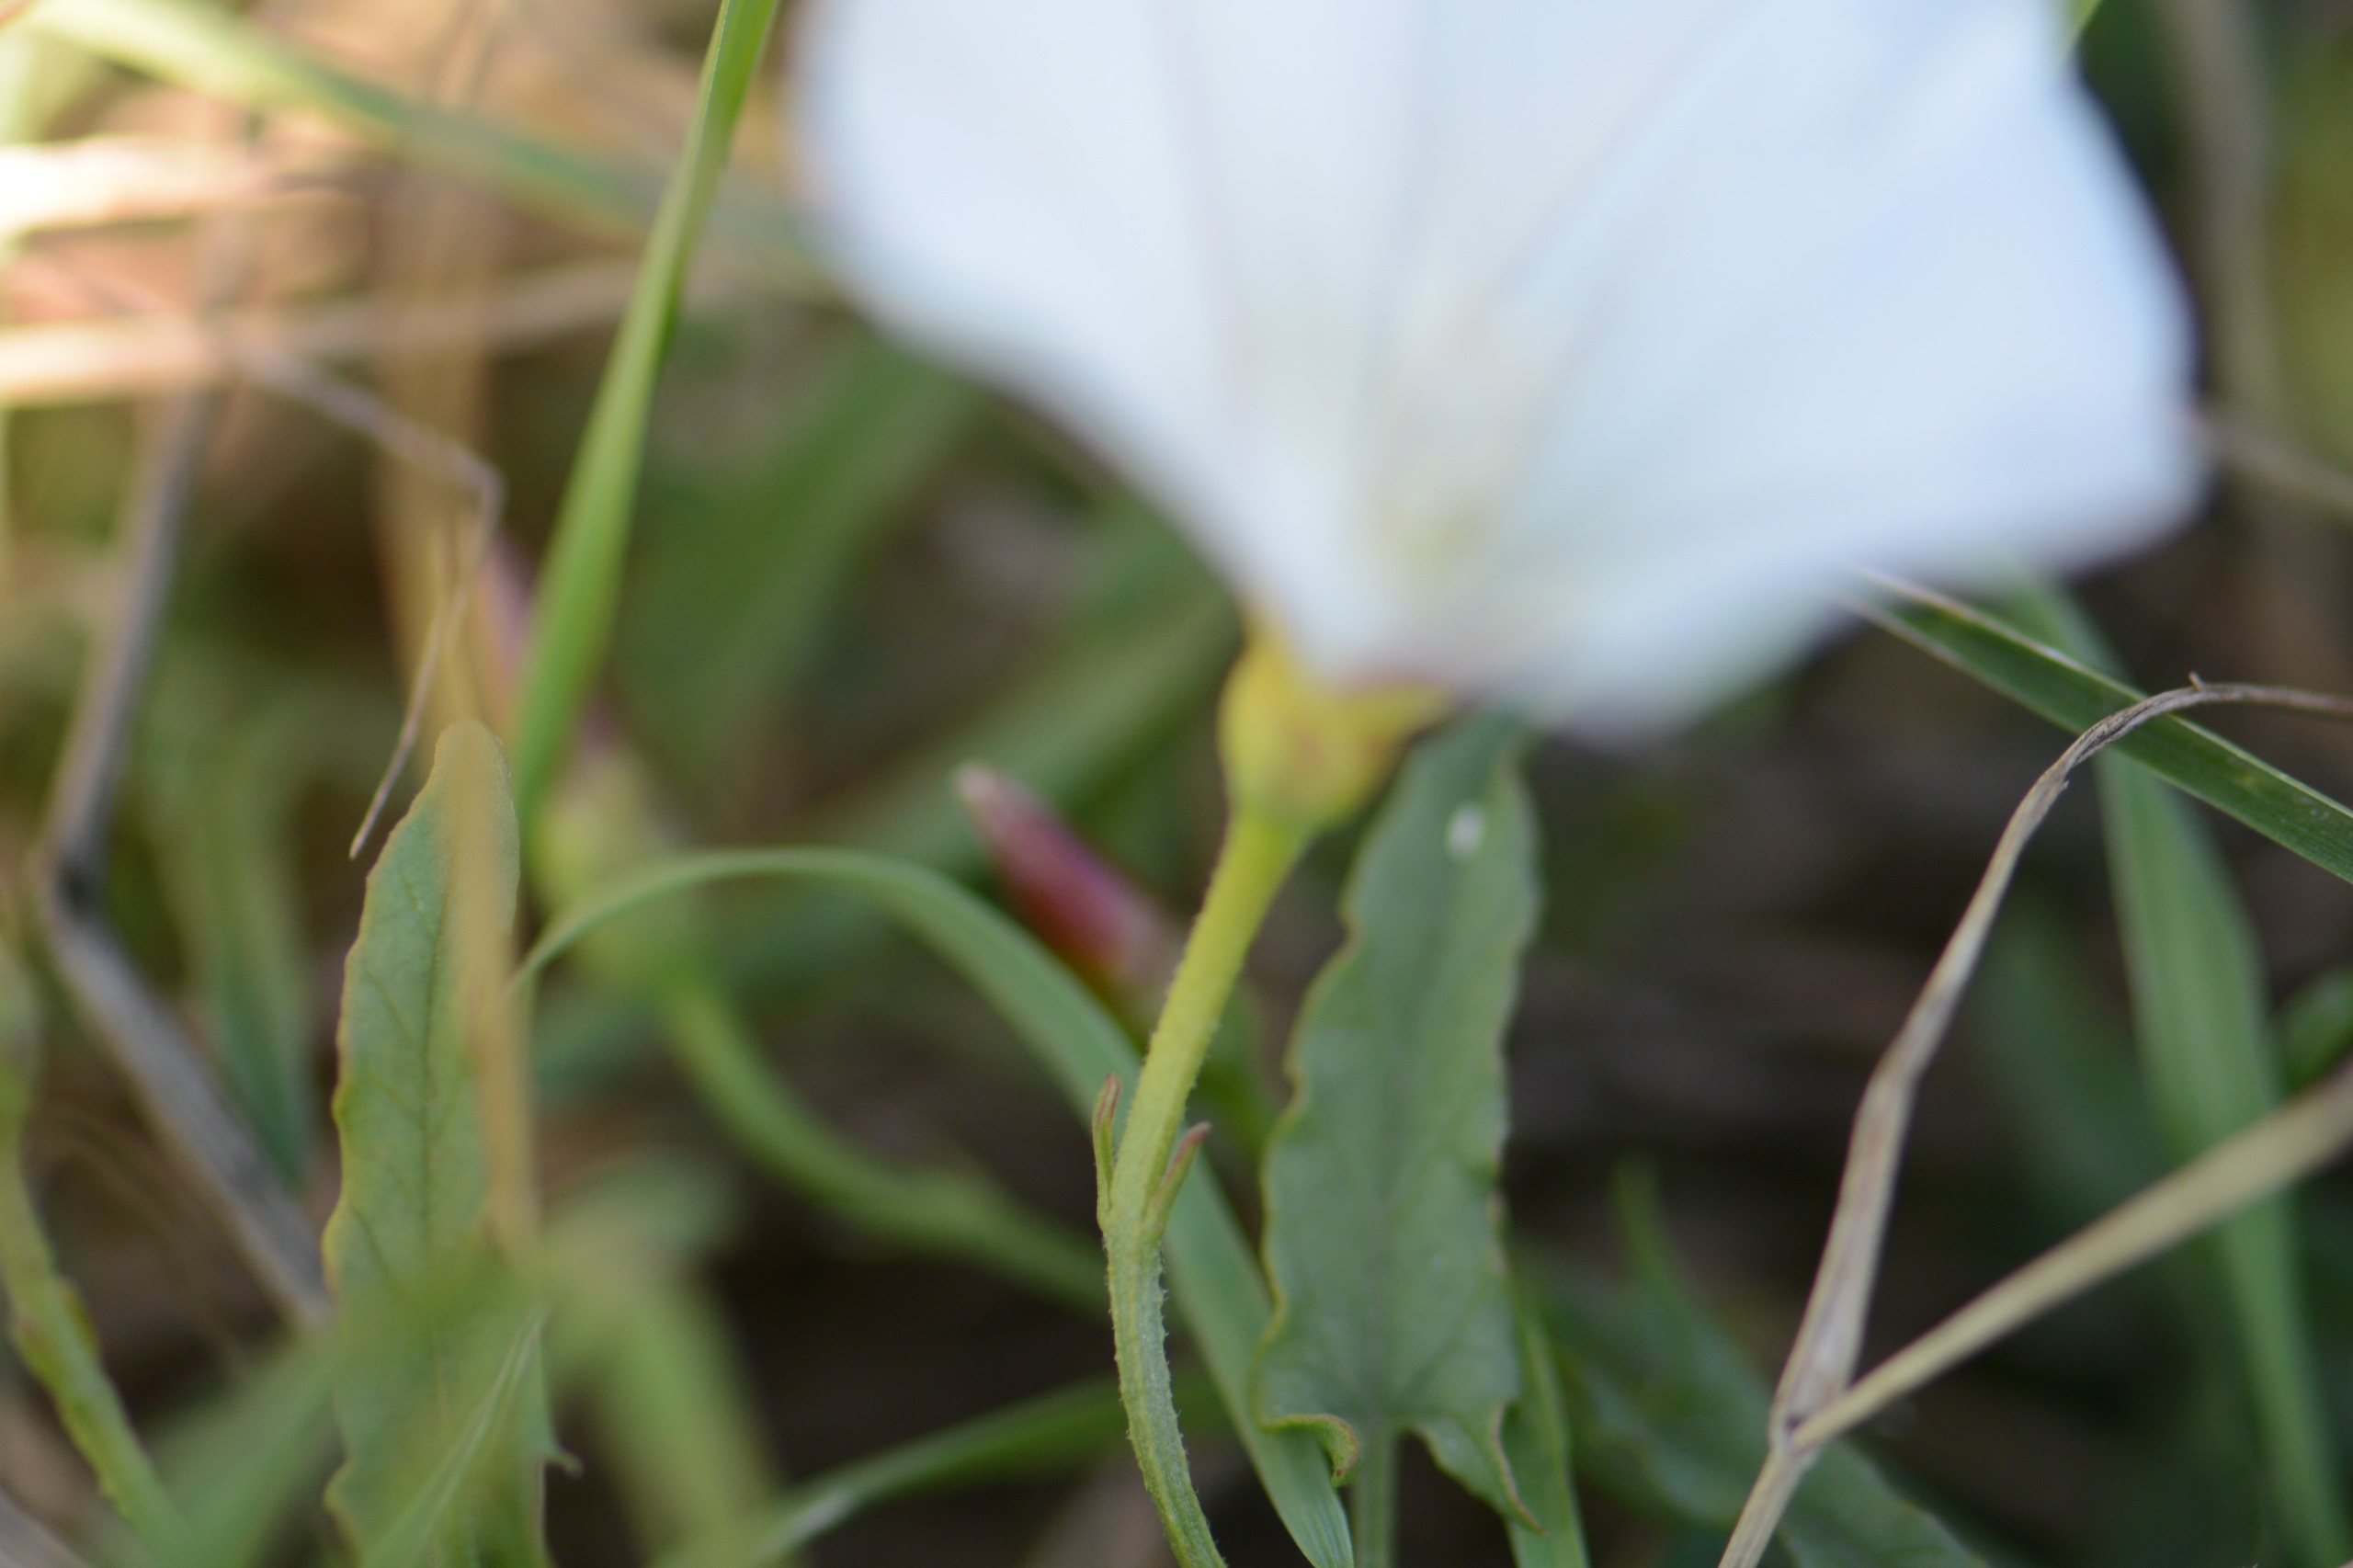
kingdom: Plantae
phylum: Tracheophyta
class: Magnoliopsida
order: Solanales
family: Convolvulaceae
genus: Convolvulus
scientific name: Convolvulus arvensis
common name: Ager-snerle
